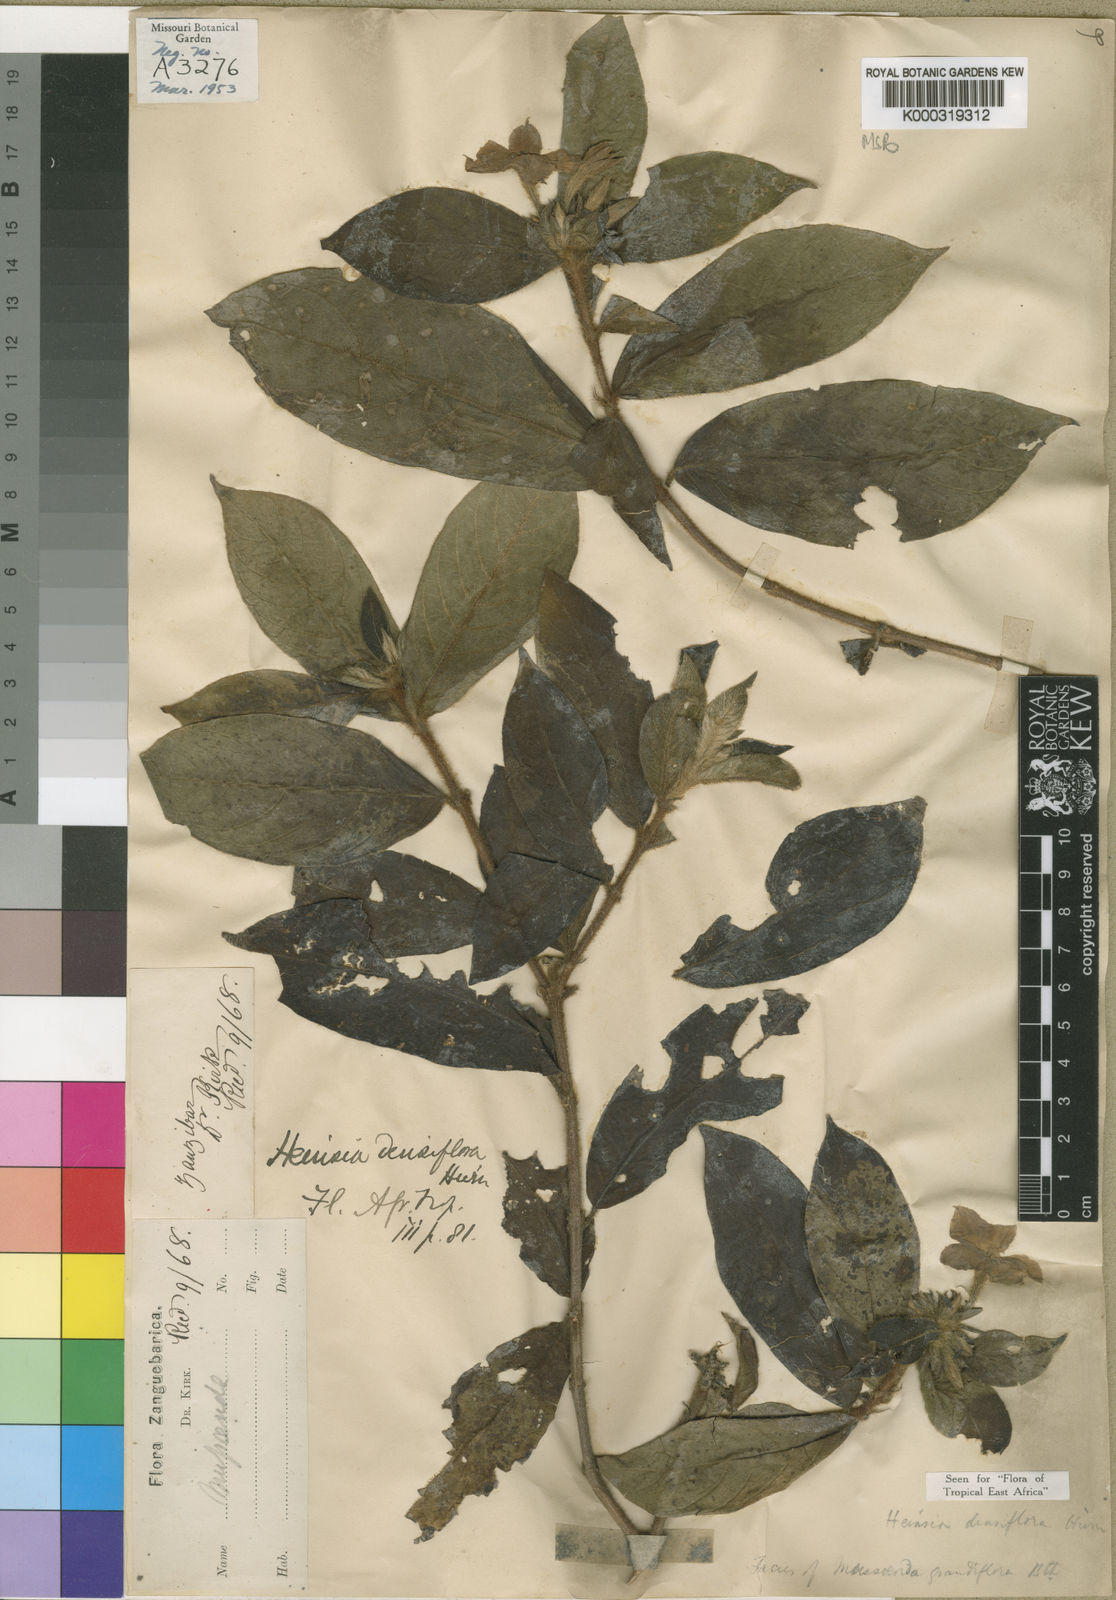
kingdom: Plantae
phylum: Tracheophyta
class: Magnoliopsida
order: Gentianales
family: Rubiaceae
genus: Heinsia
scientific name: Heinsia zanzibarica
